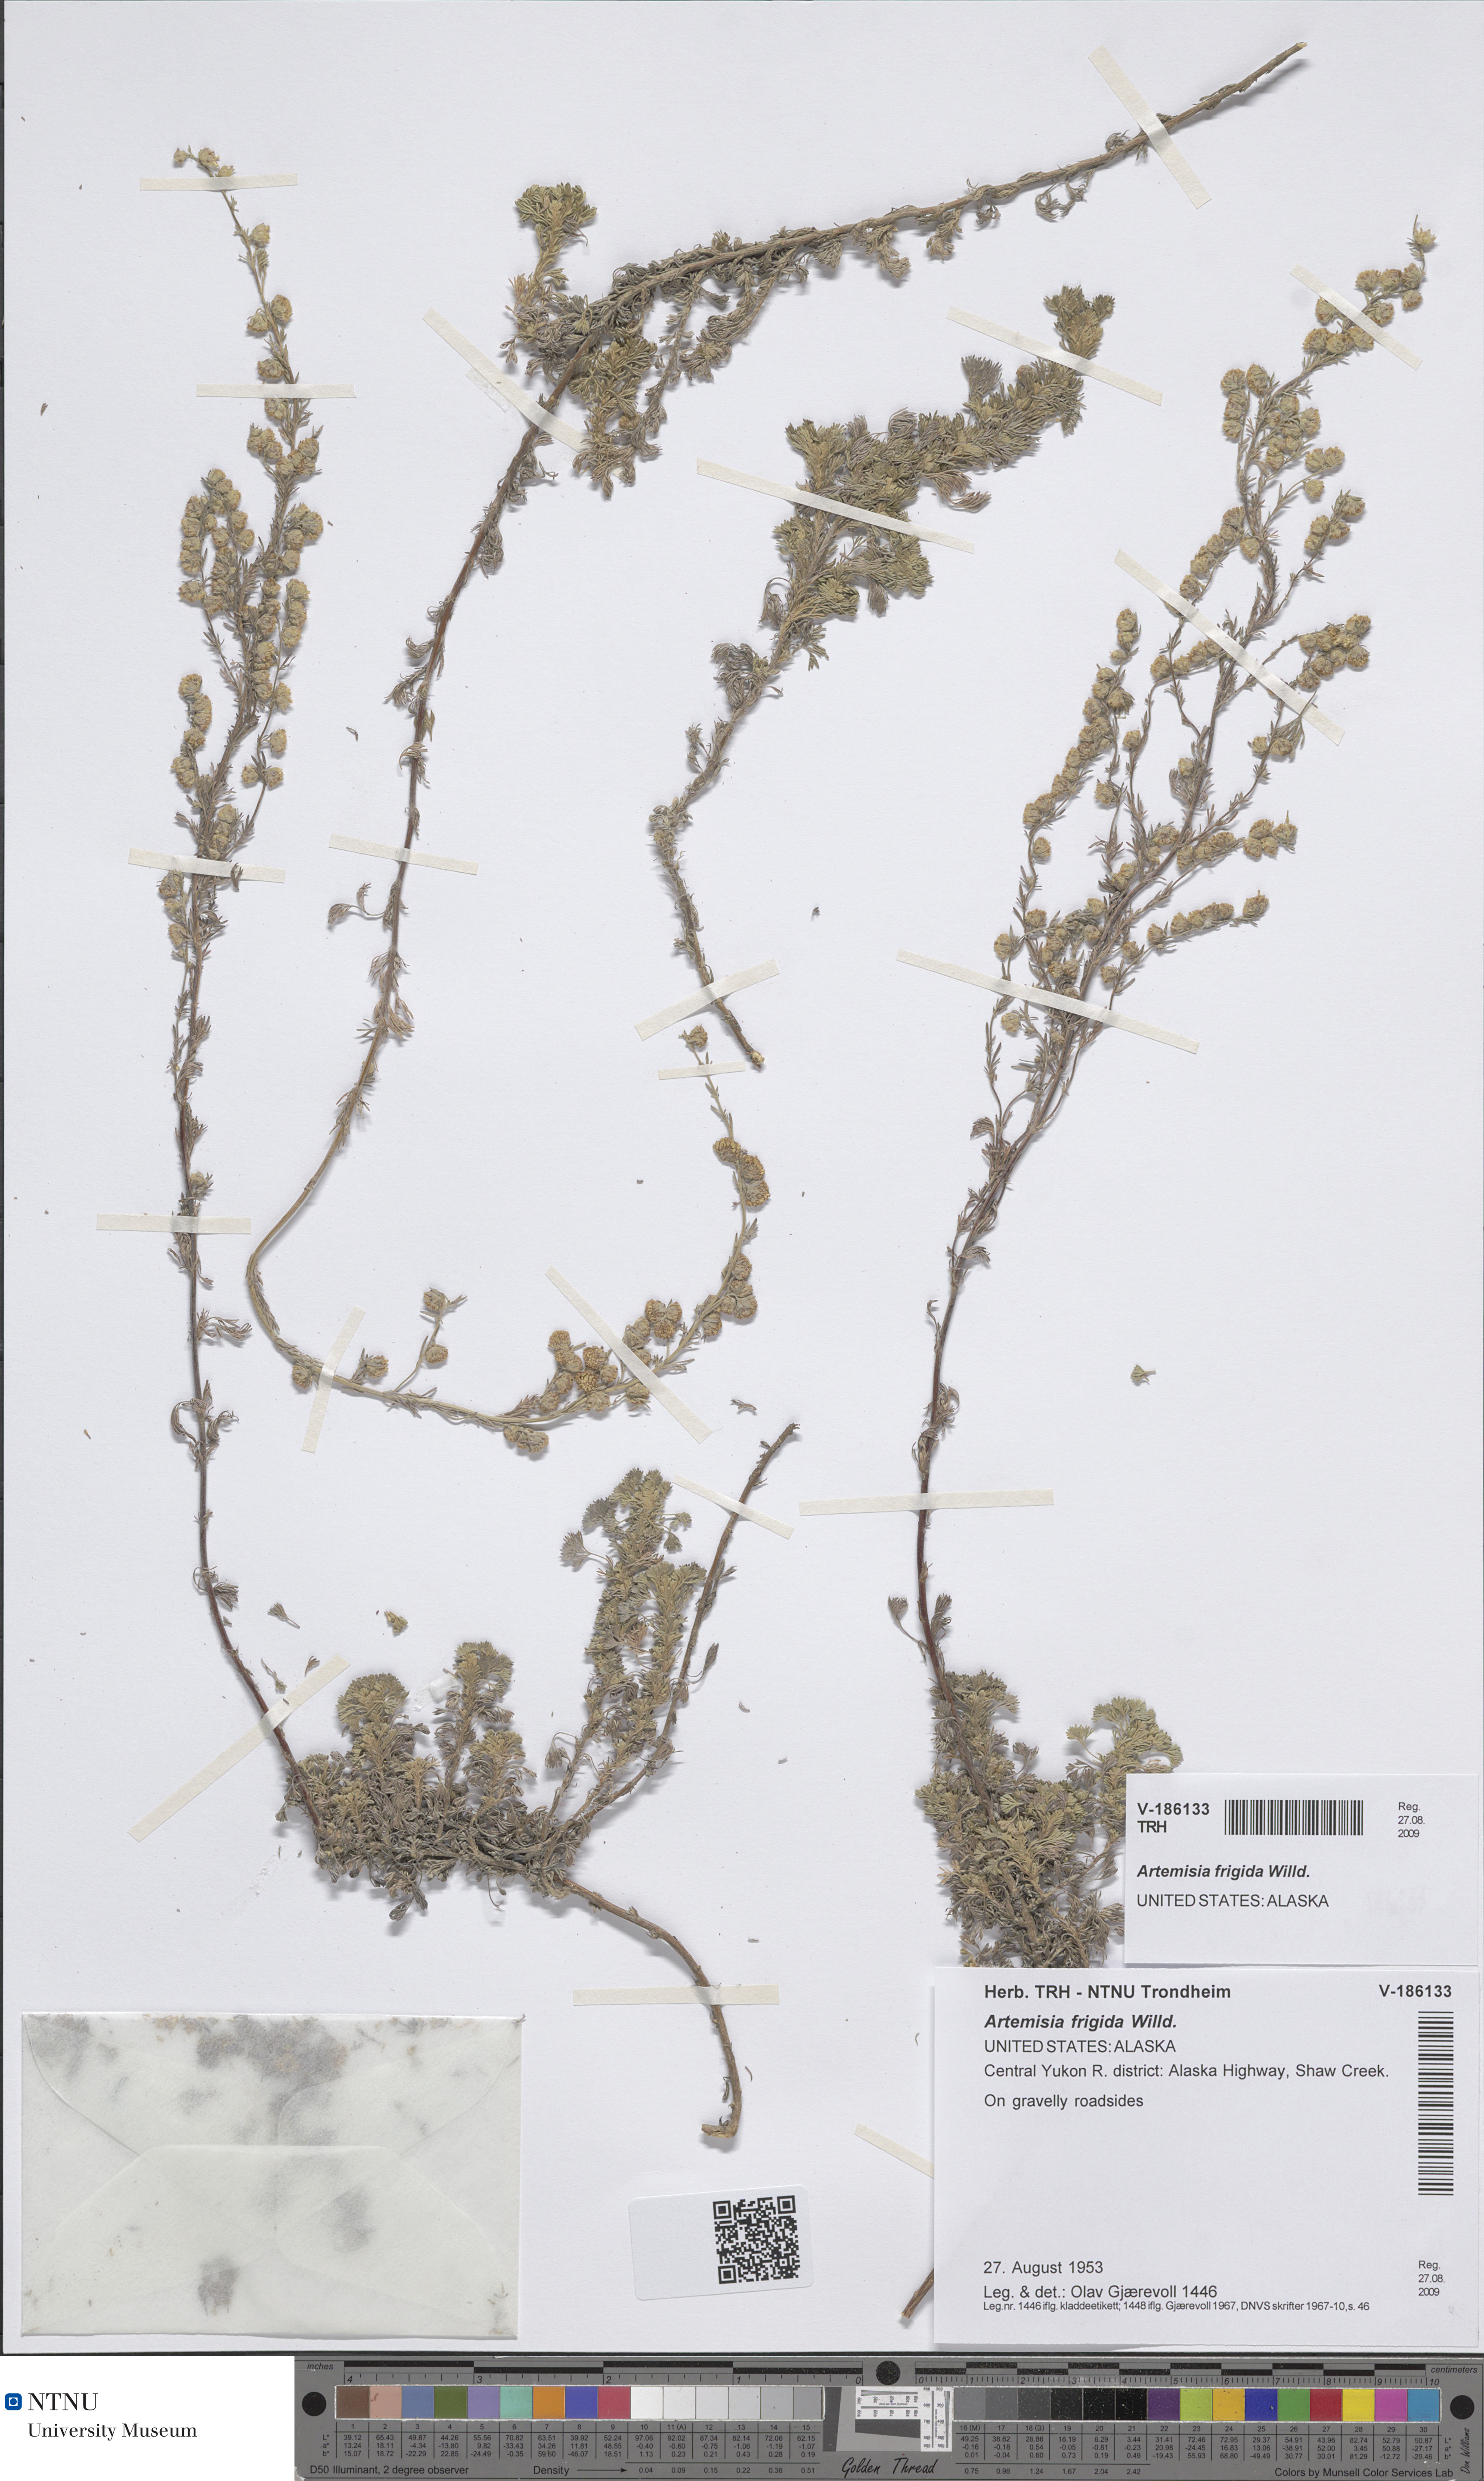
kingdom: Plantae
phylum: Tracheophyta
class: Magnoliopsida
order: Asterales
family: Asteraceae
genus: Artemisia
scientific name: Artemisia frigida
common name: Prairie sagewort
